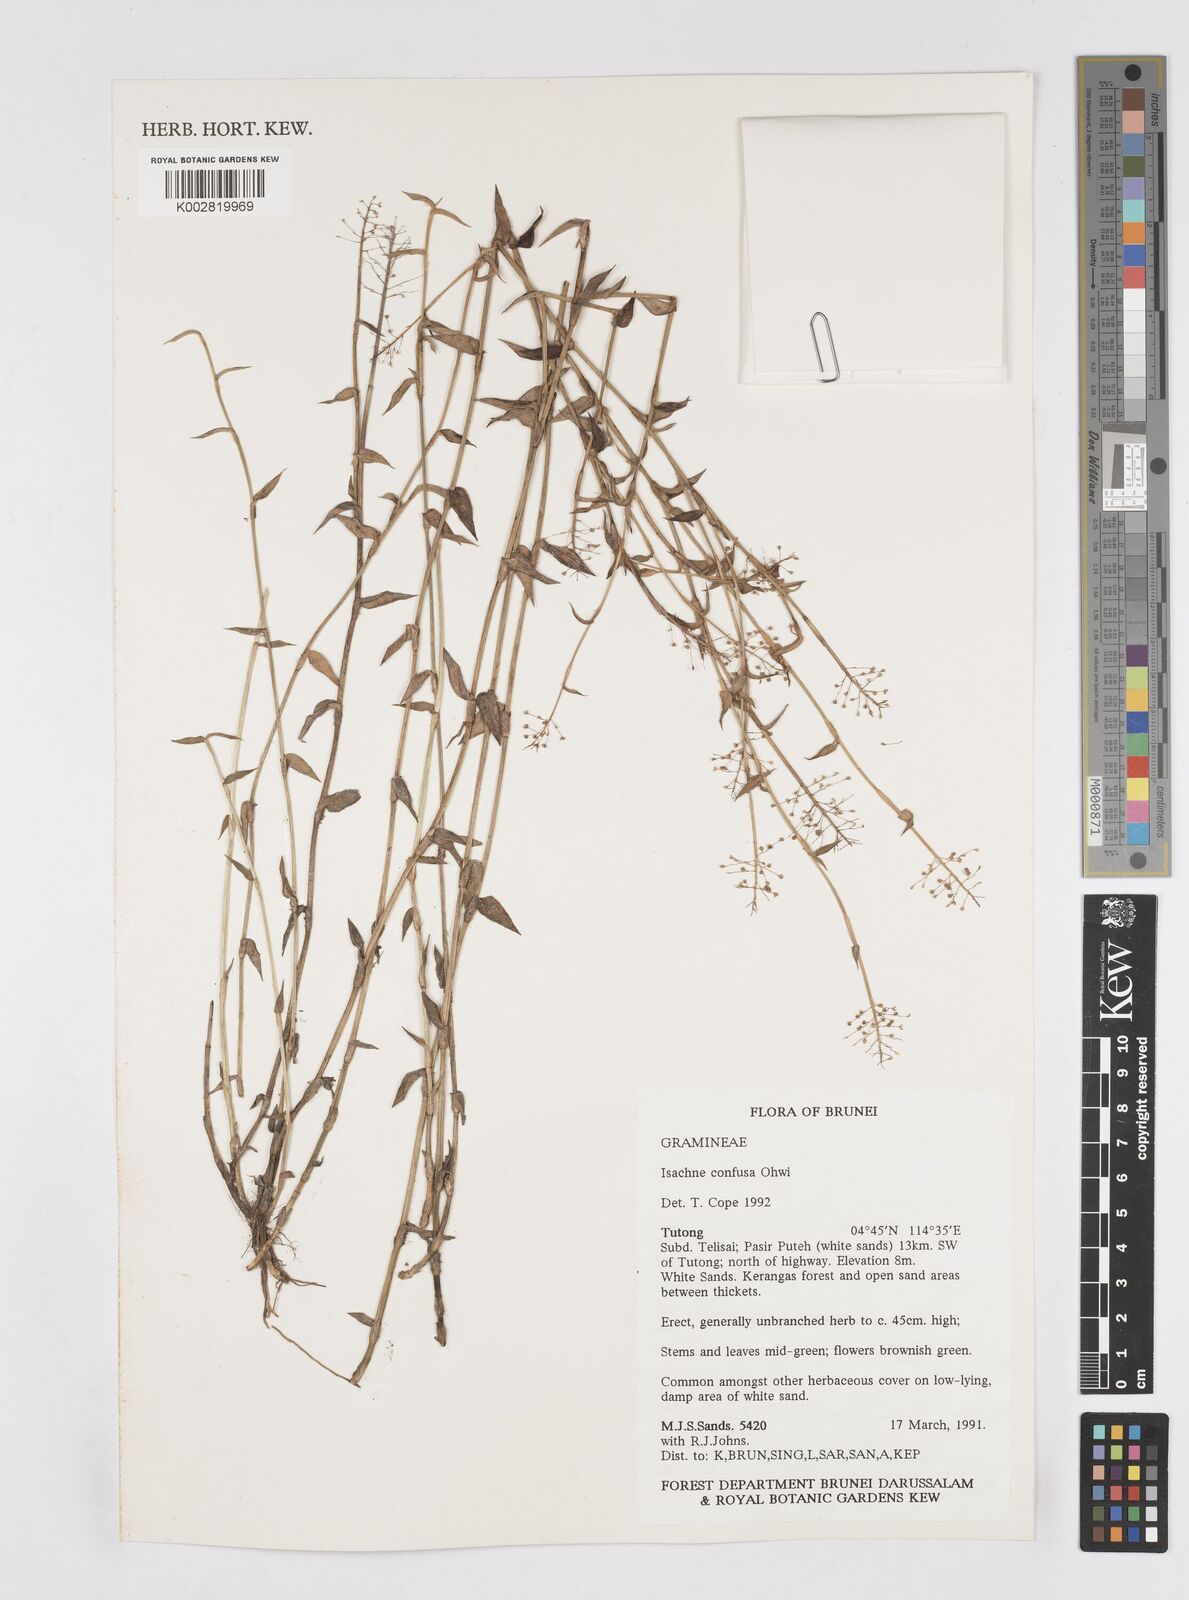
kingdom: Plantae
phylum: Tracheophyta
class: Liliopsida
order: Poales
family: Poaceae
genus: Isachne
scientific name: Isachne confusa
